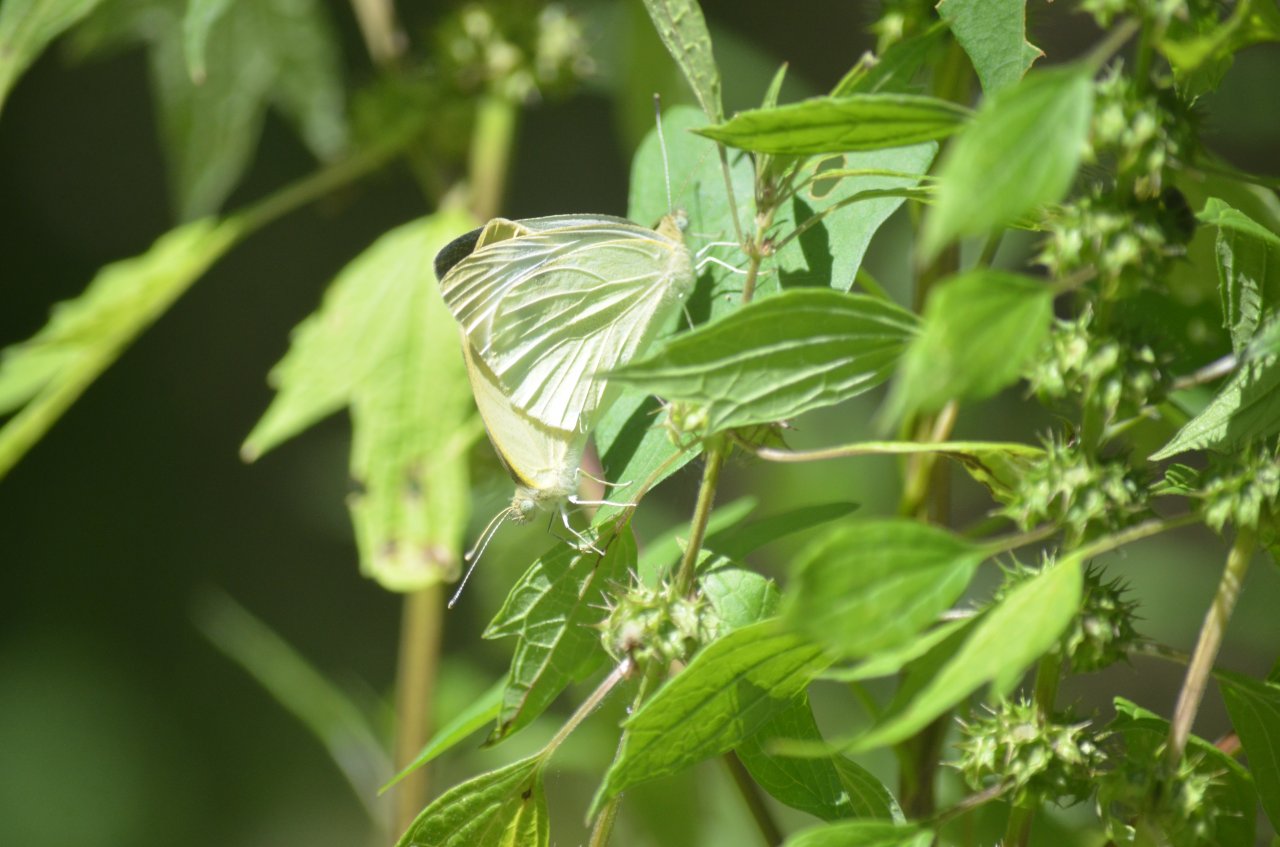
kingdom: Animalia
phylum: Arthropoda
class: Insecta
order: Lepidoptera
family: Pieridae
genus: Pieris
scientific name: Pieris rapae
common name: Cabbage White
